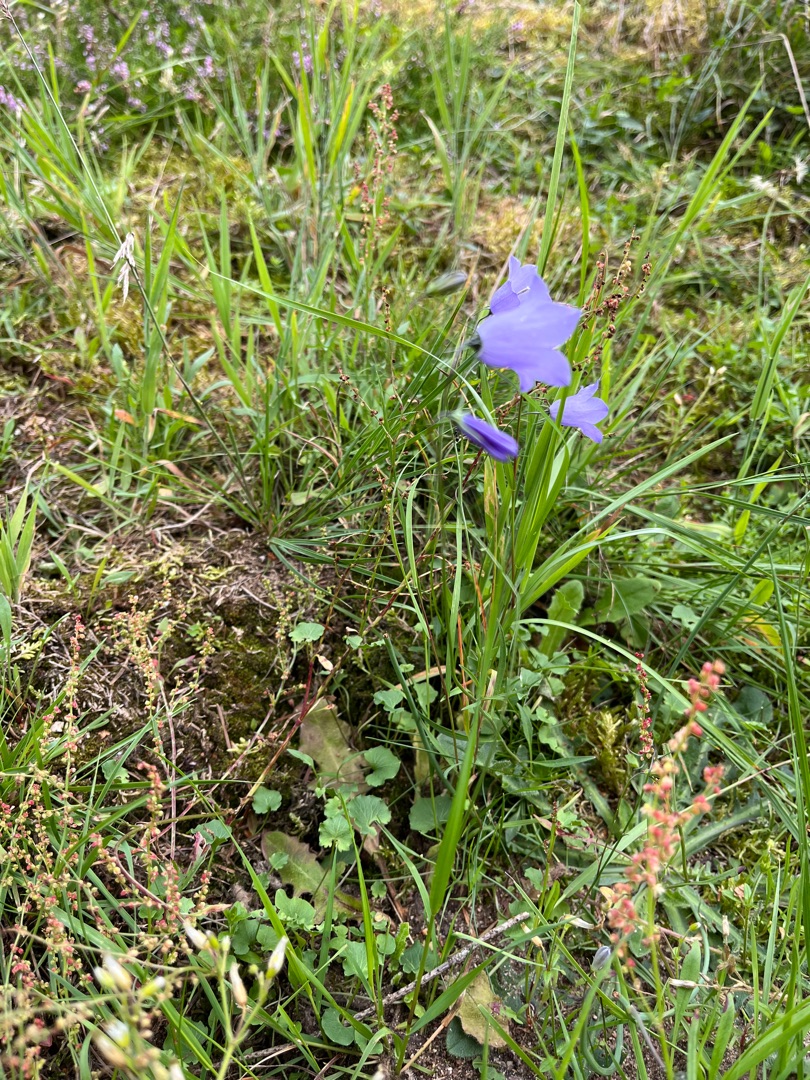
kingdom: Plantae
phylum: Tracheophyta
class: Magnoliopsida
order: Asterales
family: Campanulaceae
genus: Campanula
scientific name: Campanula rotundifolia
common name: Liden klokke
